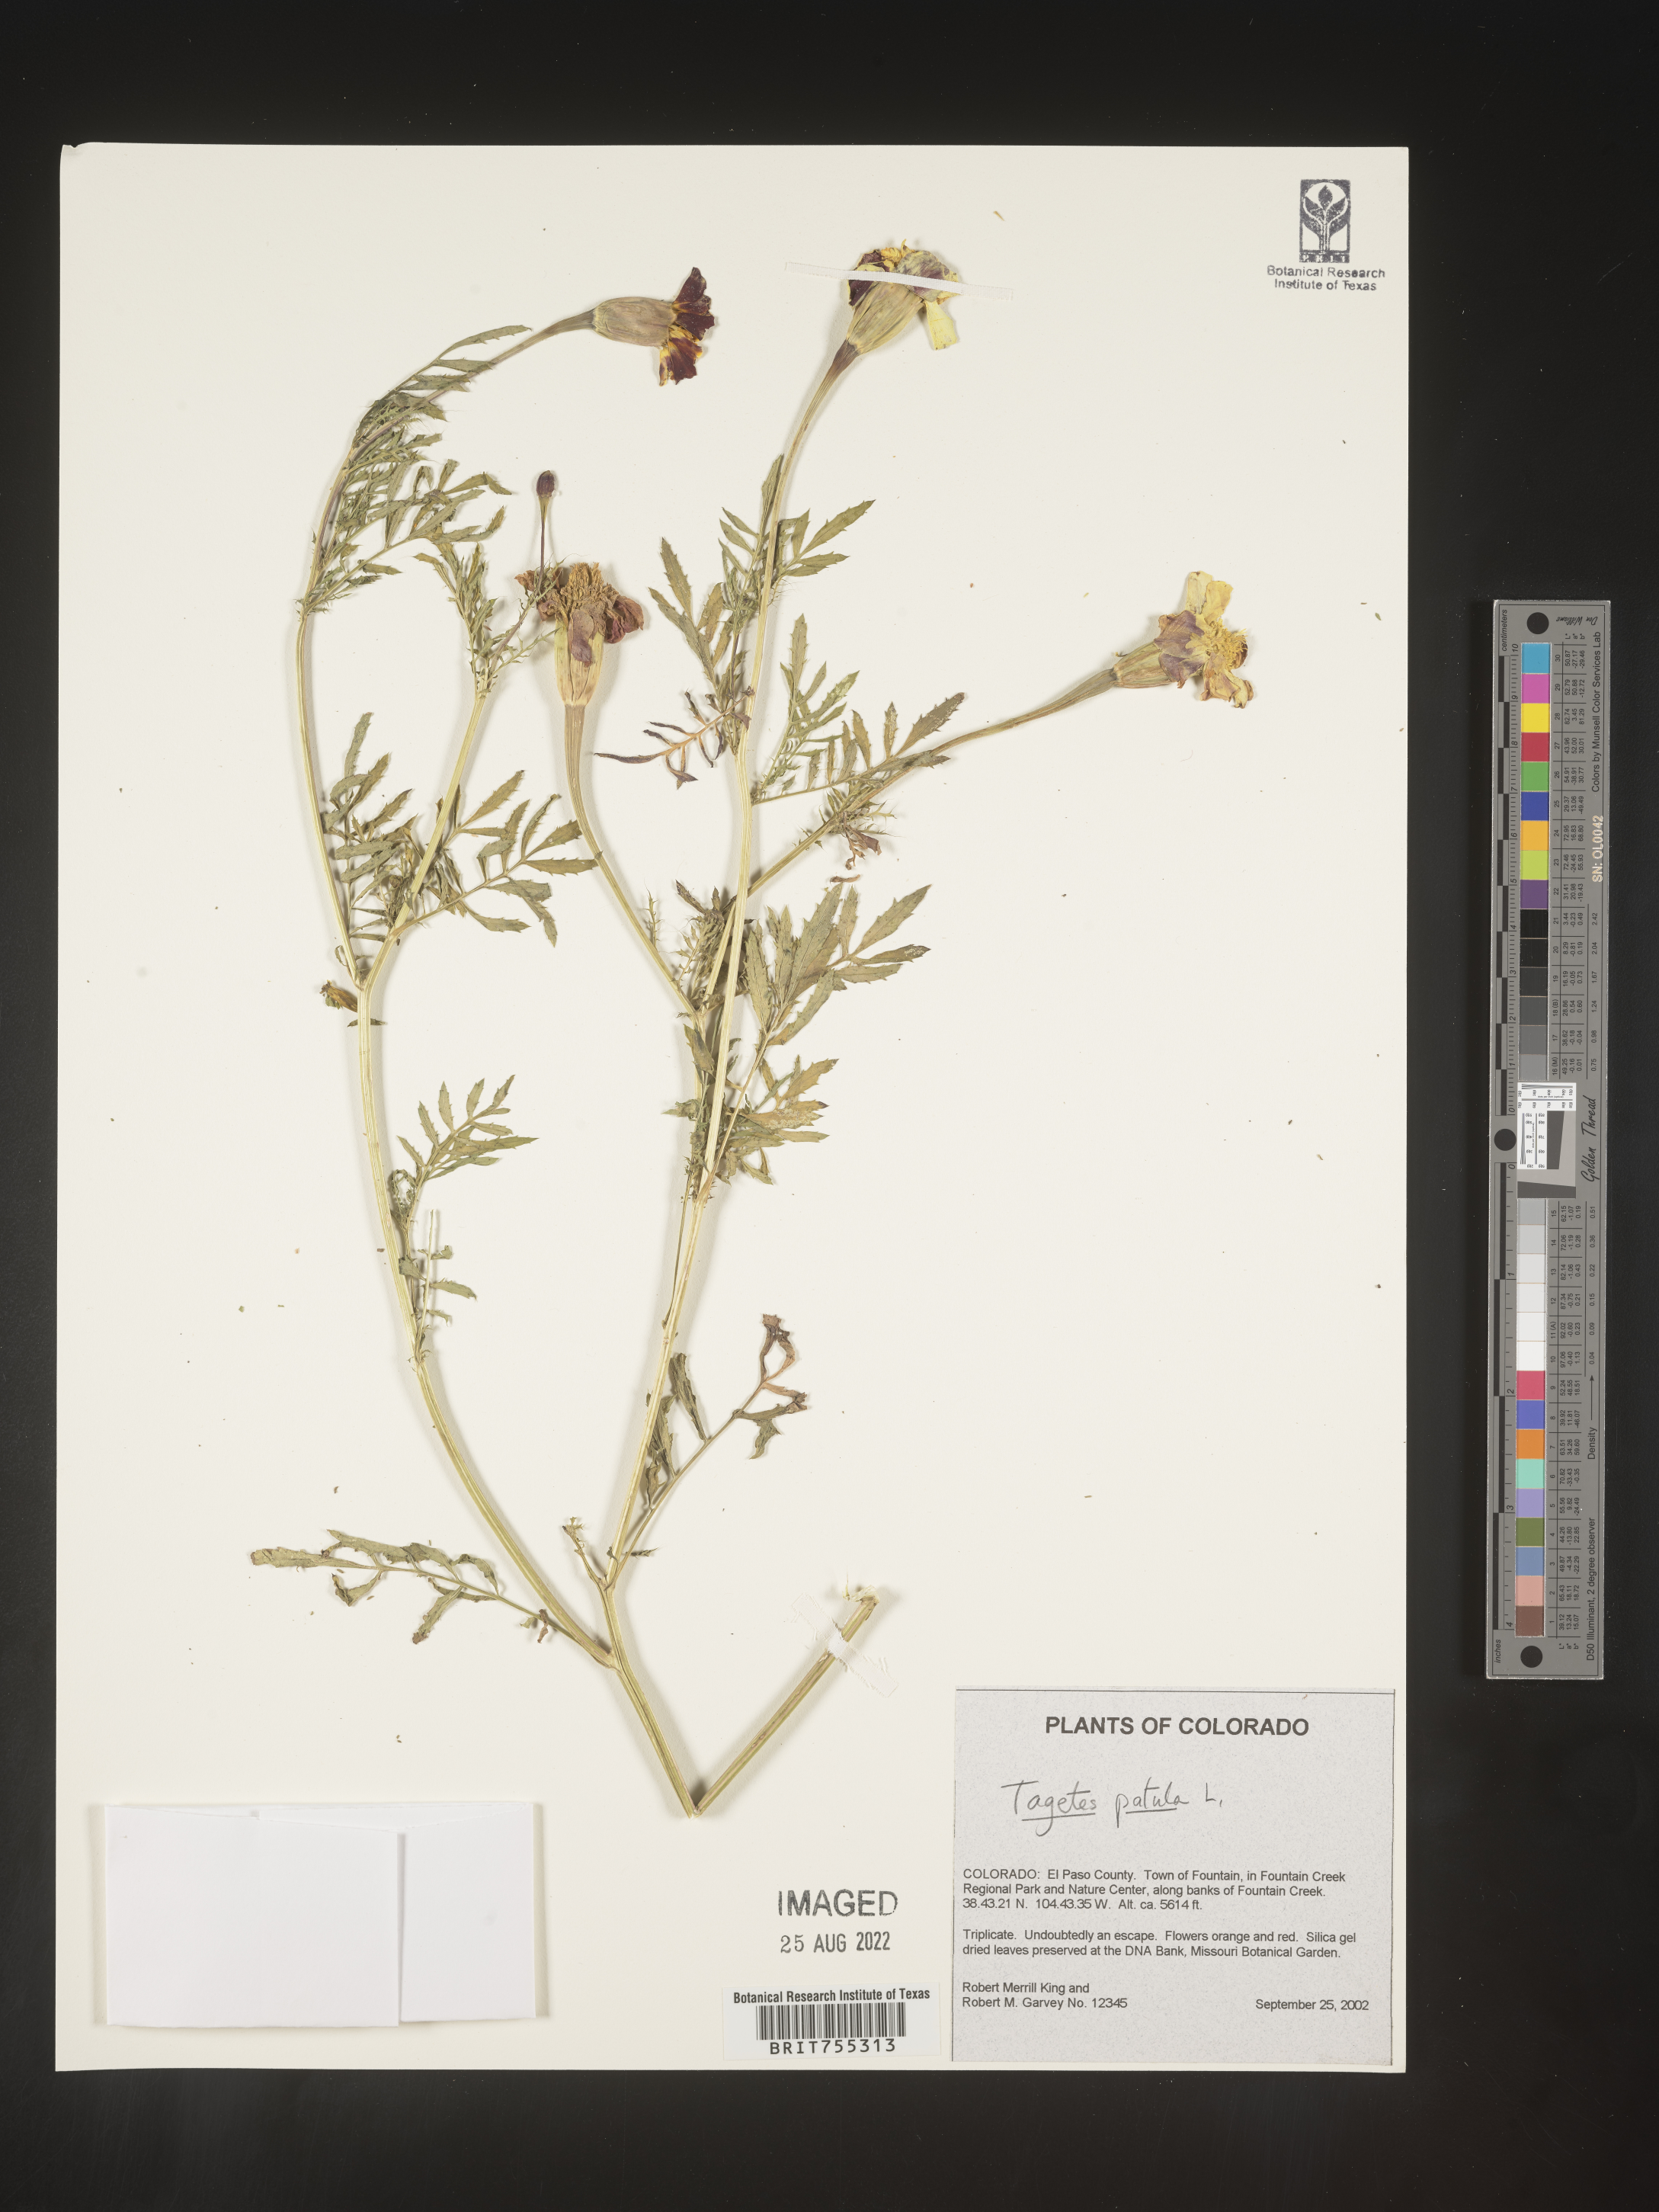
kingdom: Plantae
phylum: Tracheophyta
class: Magnoliopsida
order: Asterales
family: Asteraceae
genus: Tagetes
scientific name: Tagetes
